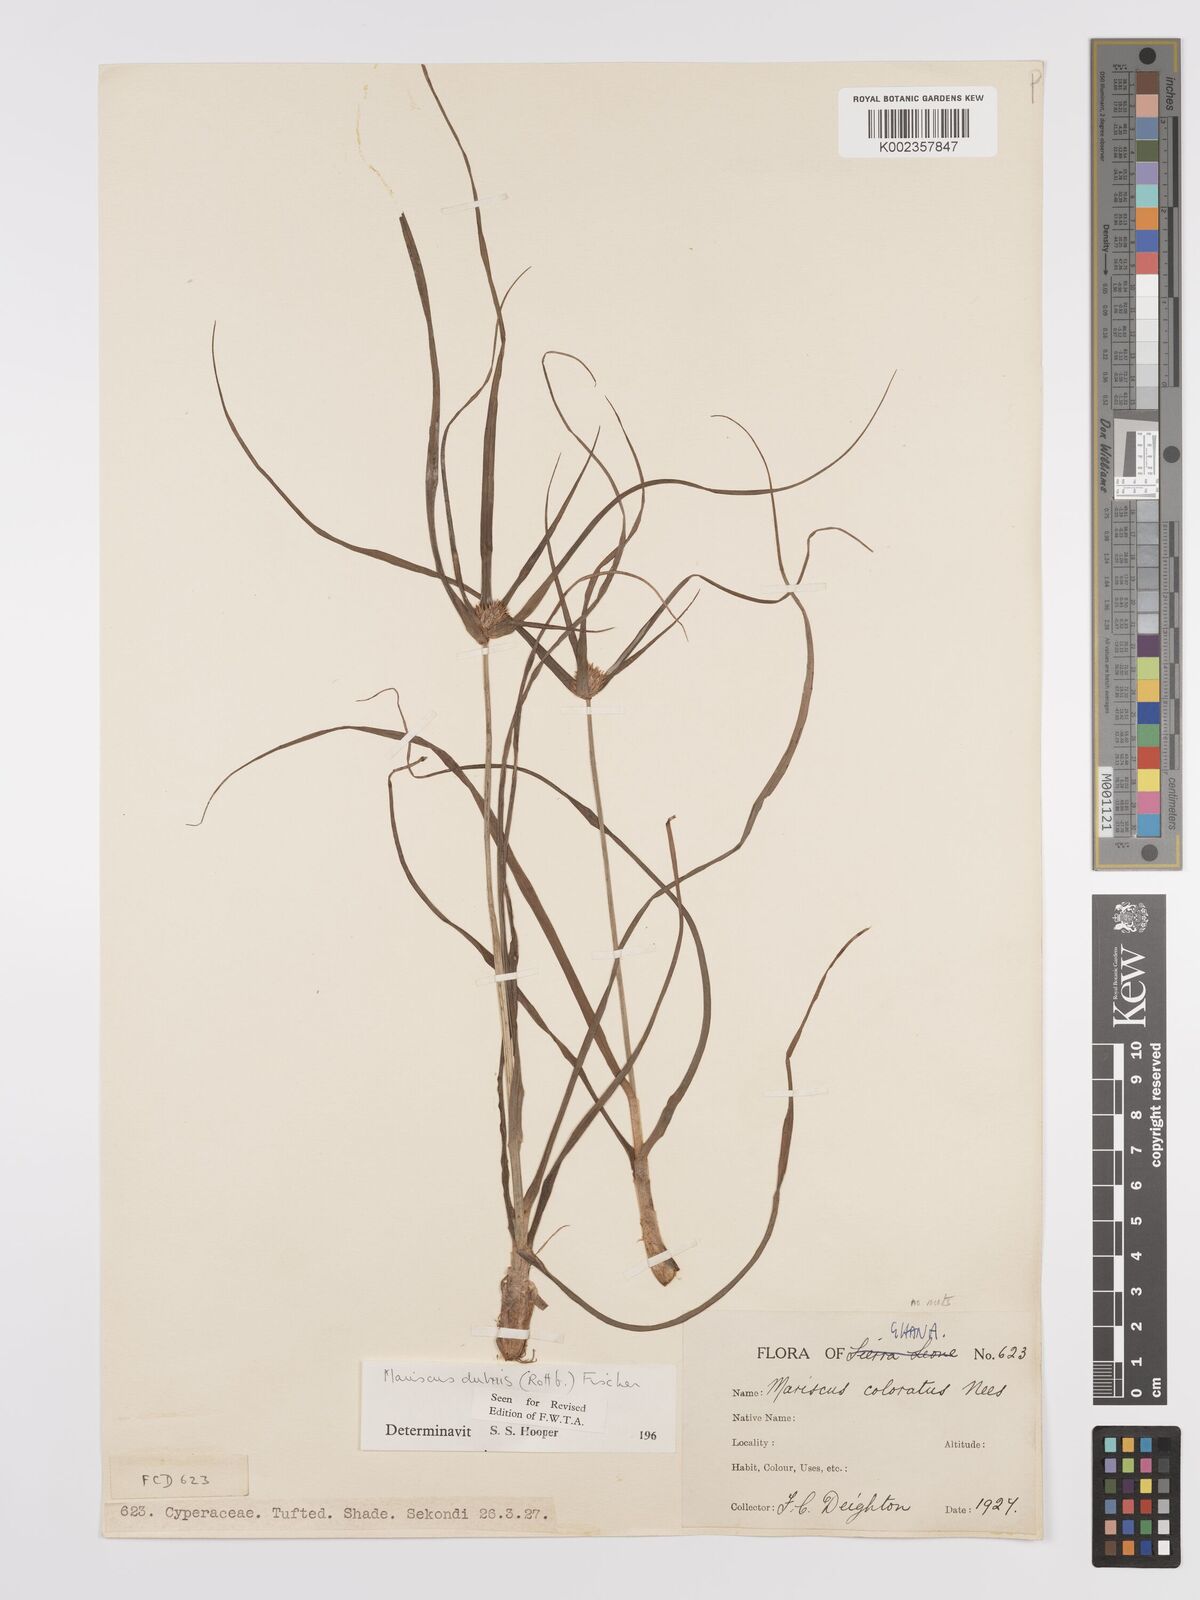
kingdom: Plantae
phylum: Tracheophyta
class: Liliopsida
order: Poales
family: Cyperaceae
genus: Cyperus
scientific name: Cyperus dubius
